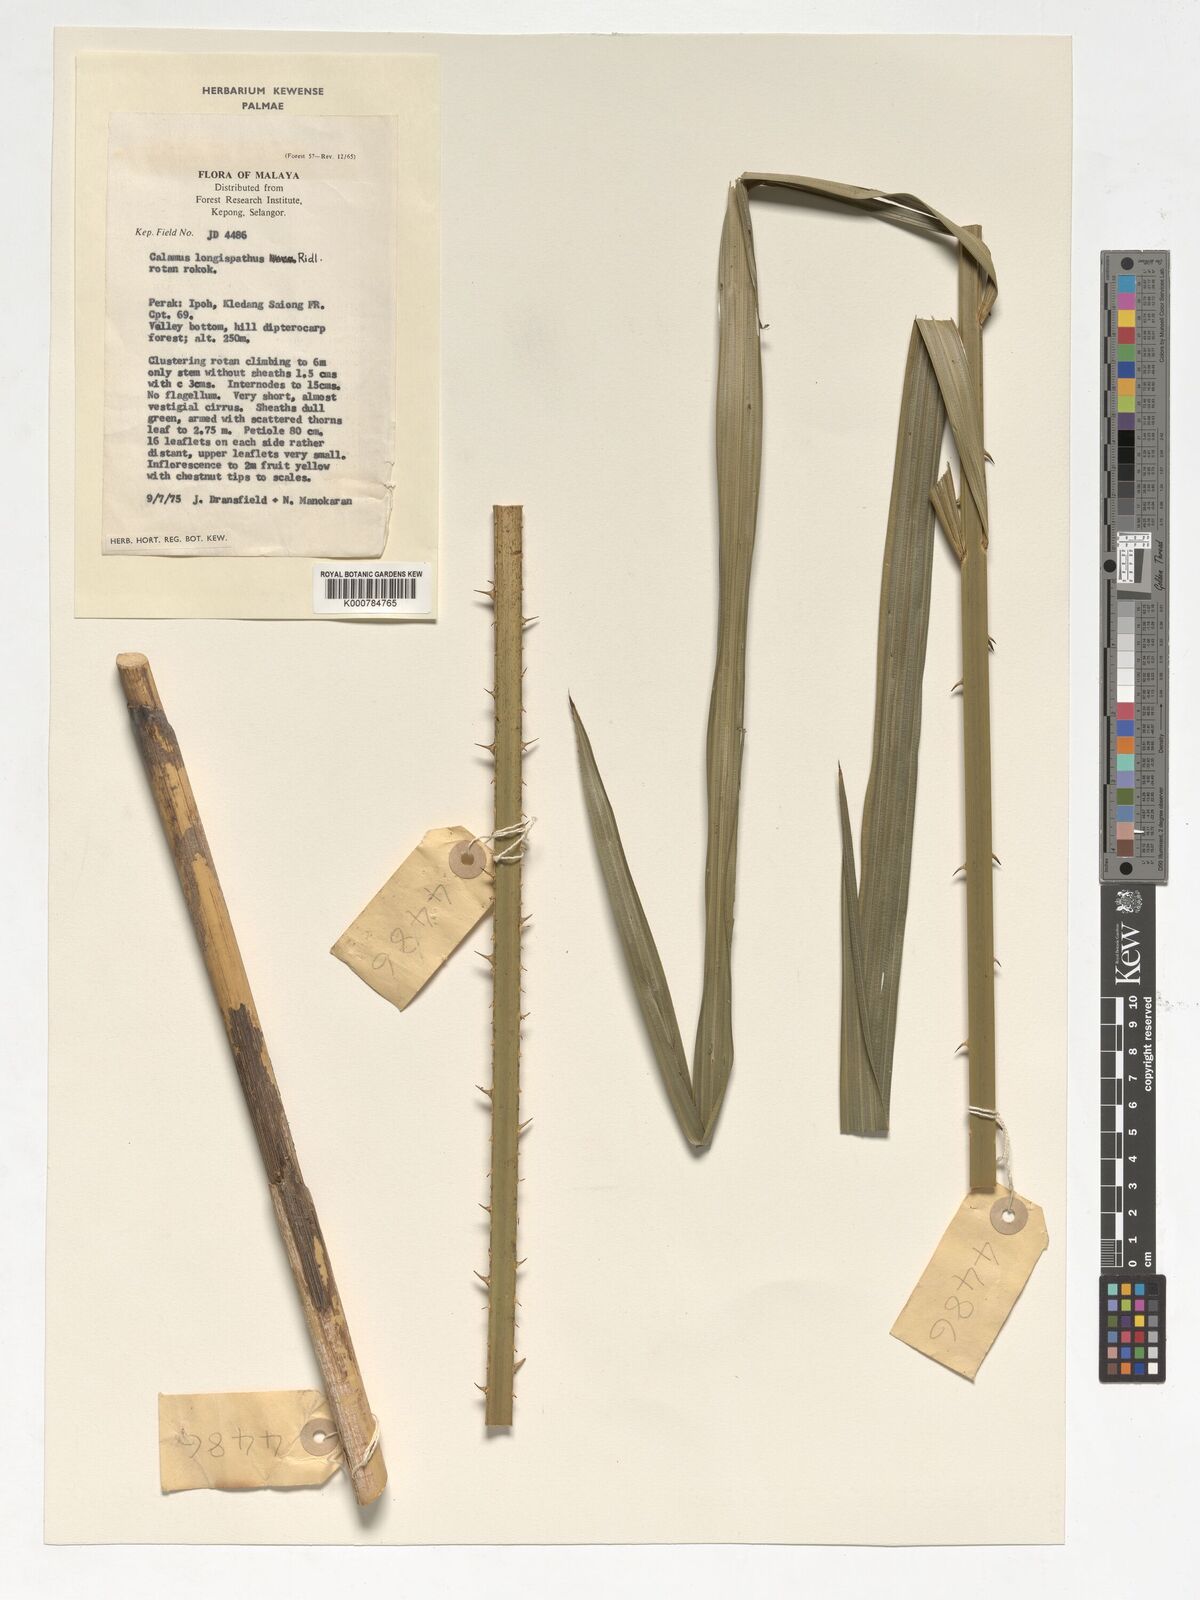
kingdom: Plantae
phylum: Tracheophyta
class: Liliopsida
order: Arecales
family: Arecaceae
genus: Calamus
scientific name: Calamus longispatha
